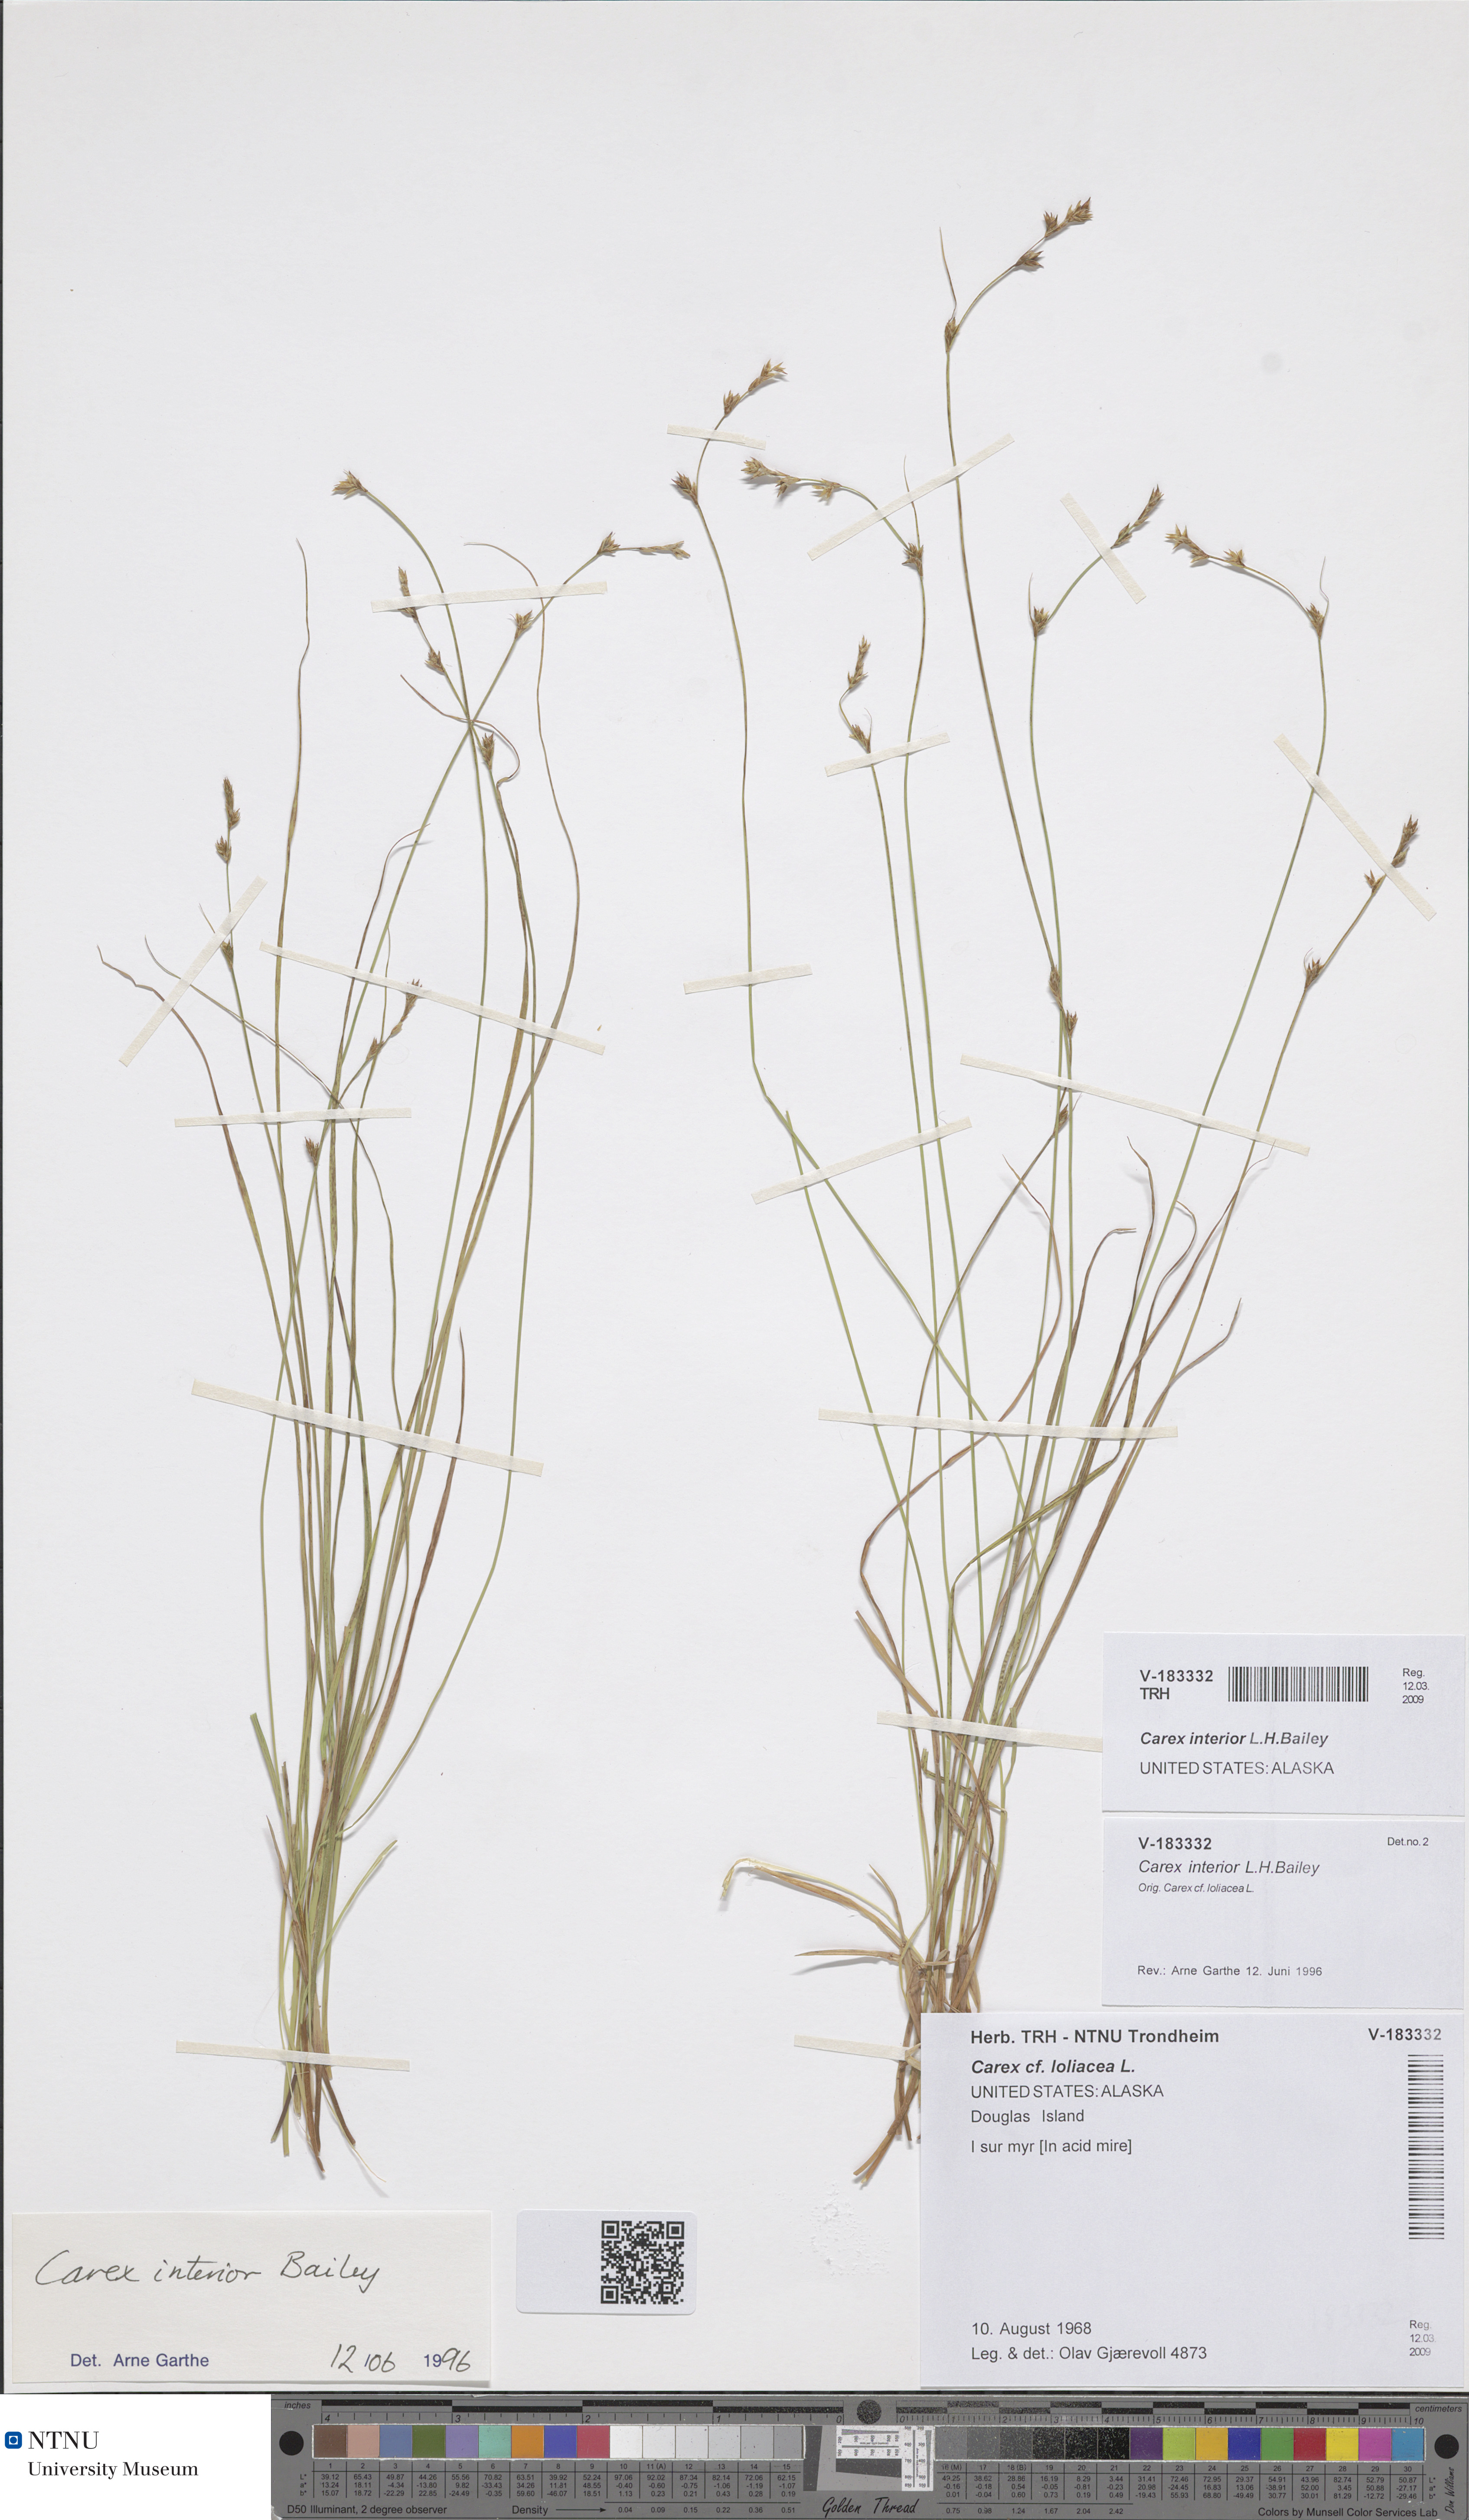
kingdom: Plantae
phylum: Tracheophyta
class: Liliopsida
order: Poales
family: Cyperaceae
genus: Carex
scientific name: Carex interior
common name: Inland sedge
